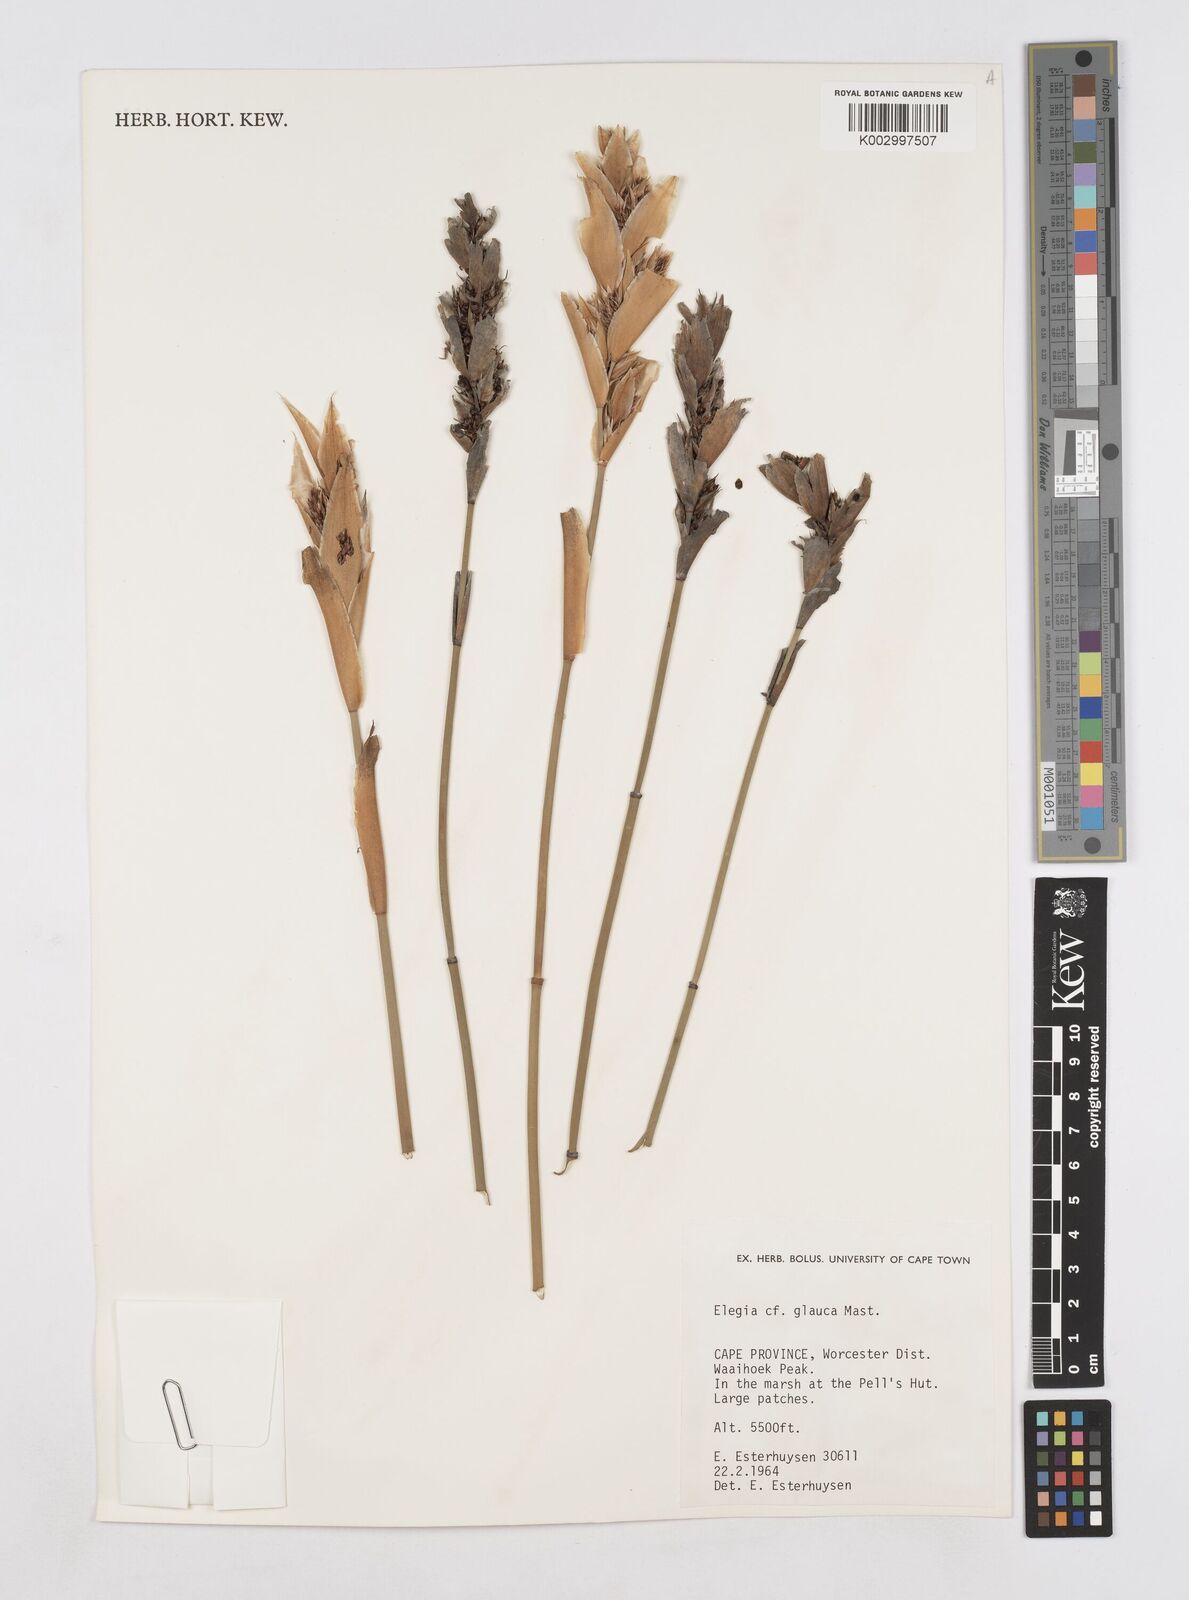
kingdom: Plantae
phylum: Tracheophyta
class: Liliopsida
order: Poales
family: Restionaceae
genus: Elegia
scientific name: Elegia asperiflora
